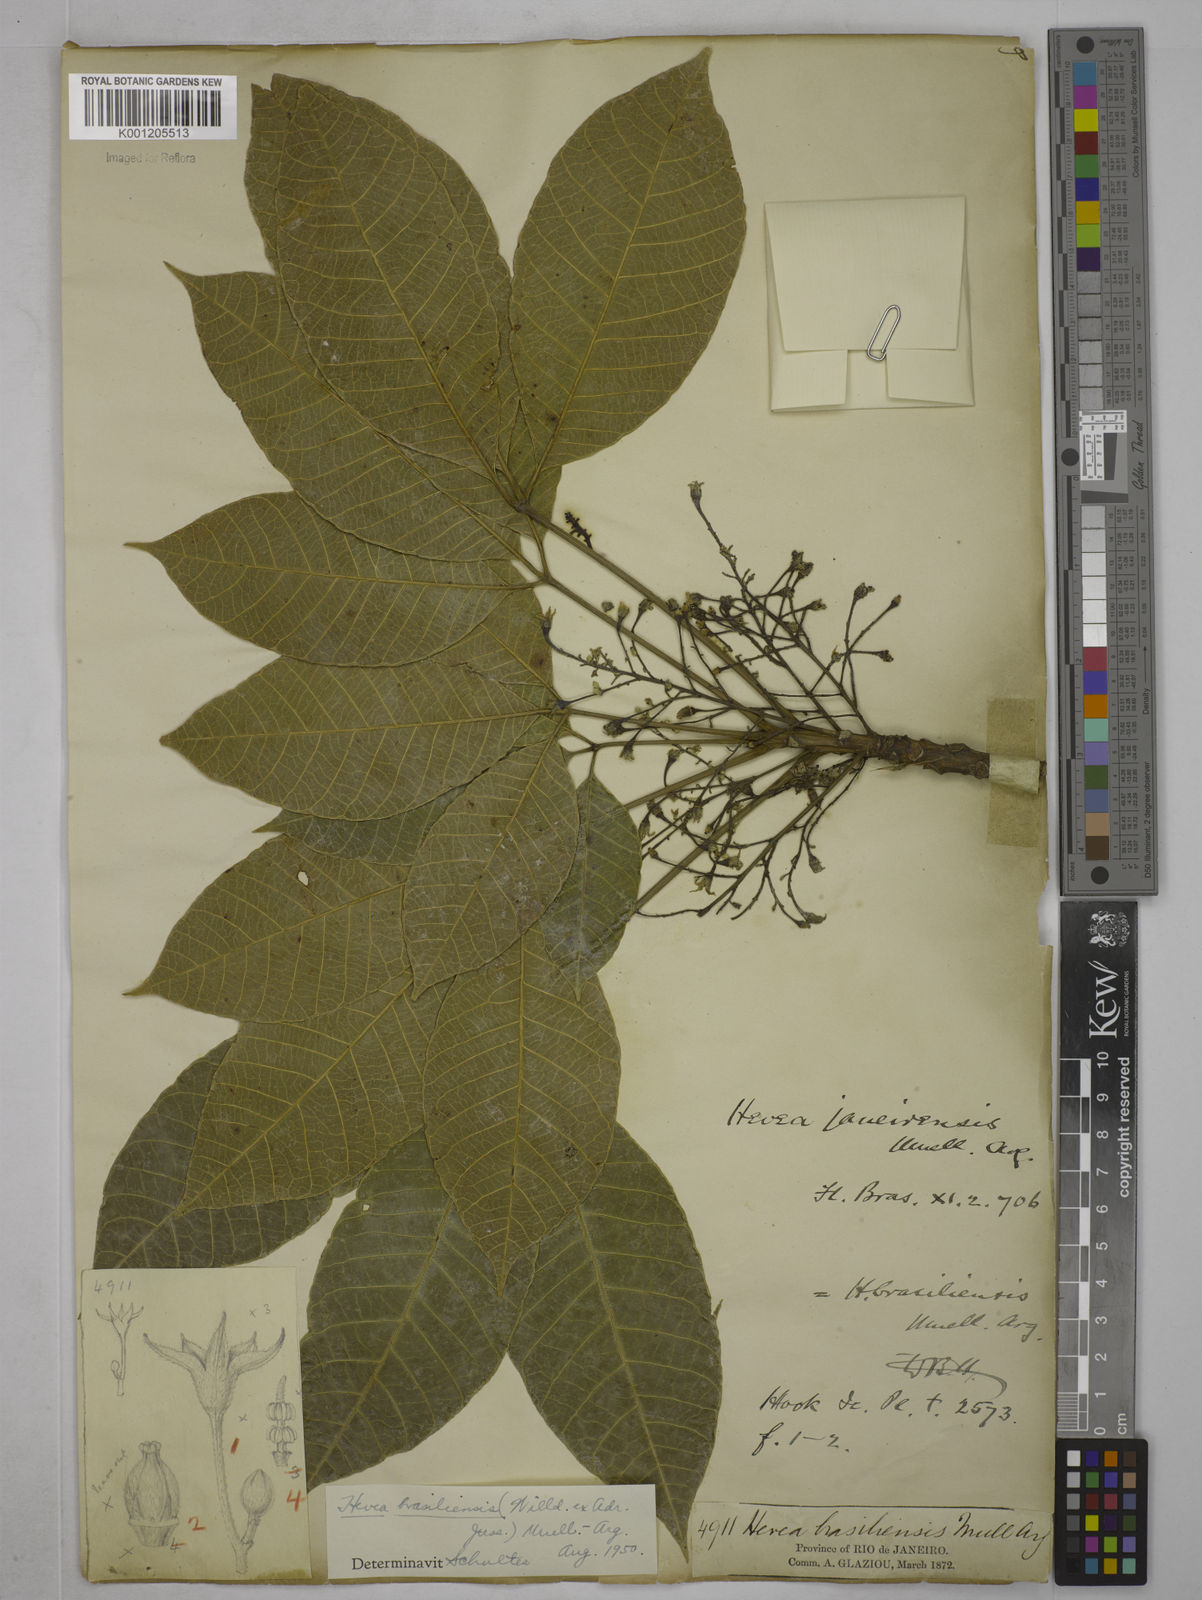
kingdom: Plantae
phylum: Tracheophyta
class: Magnoliopsida
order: Malpighiales
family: Euphorbiaceae
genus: Hevea
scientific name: Hevea brasiliensis
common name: Natural rubber
